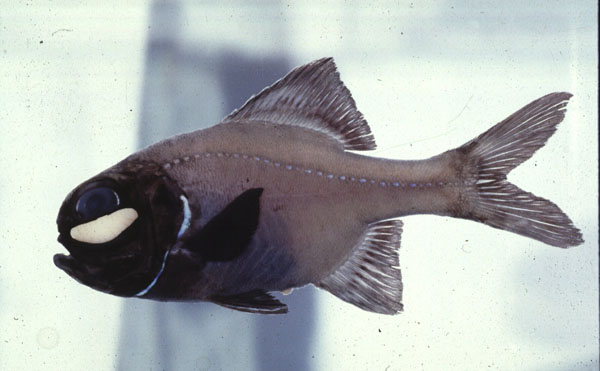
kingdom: Animalia
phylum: Chordata
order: Beryciformes
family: Anomalopidae
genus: Photoblepharon
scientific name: Photoblepharon steinitzi
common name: Flashlight fish
